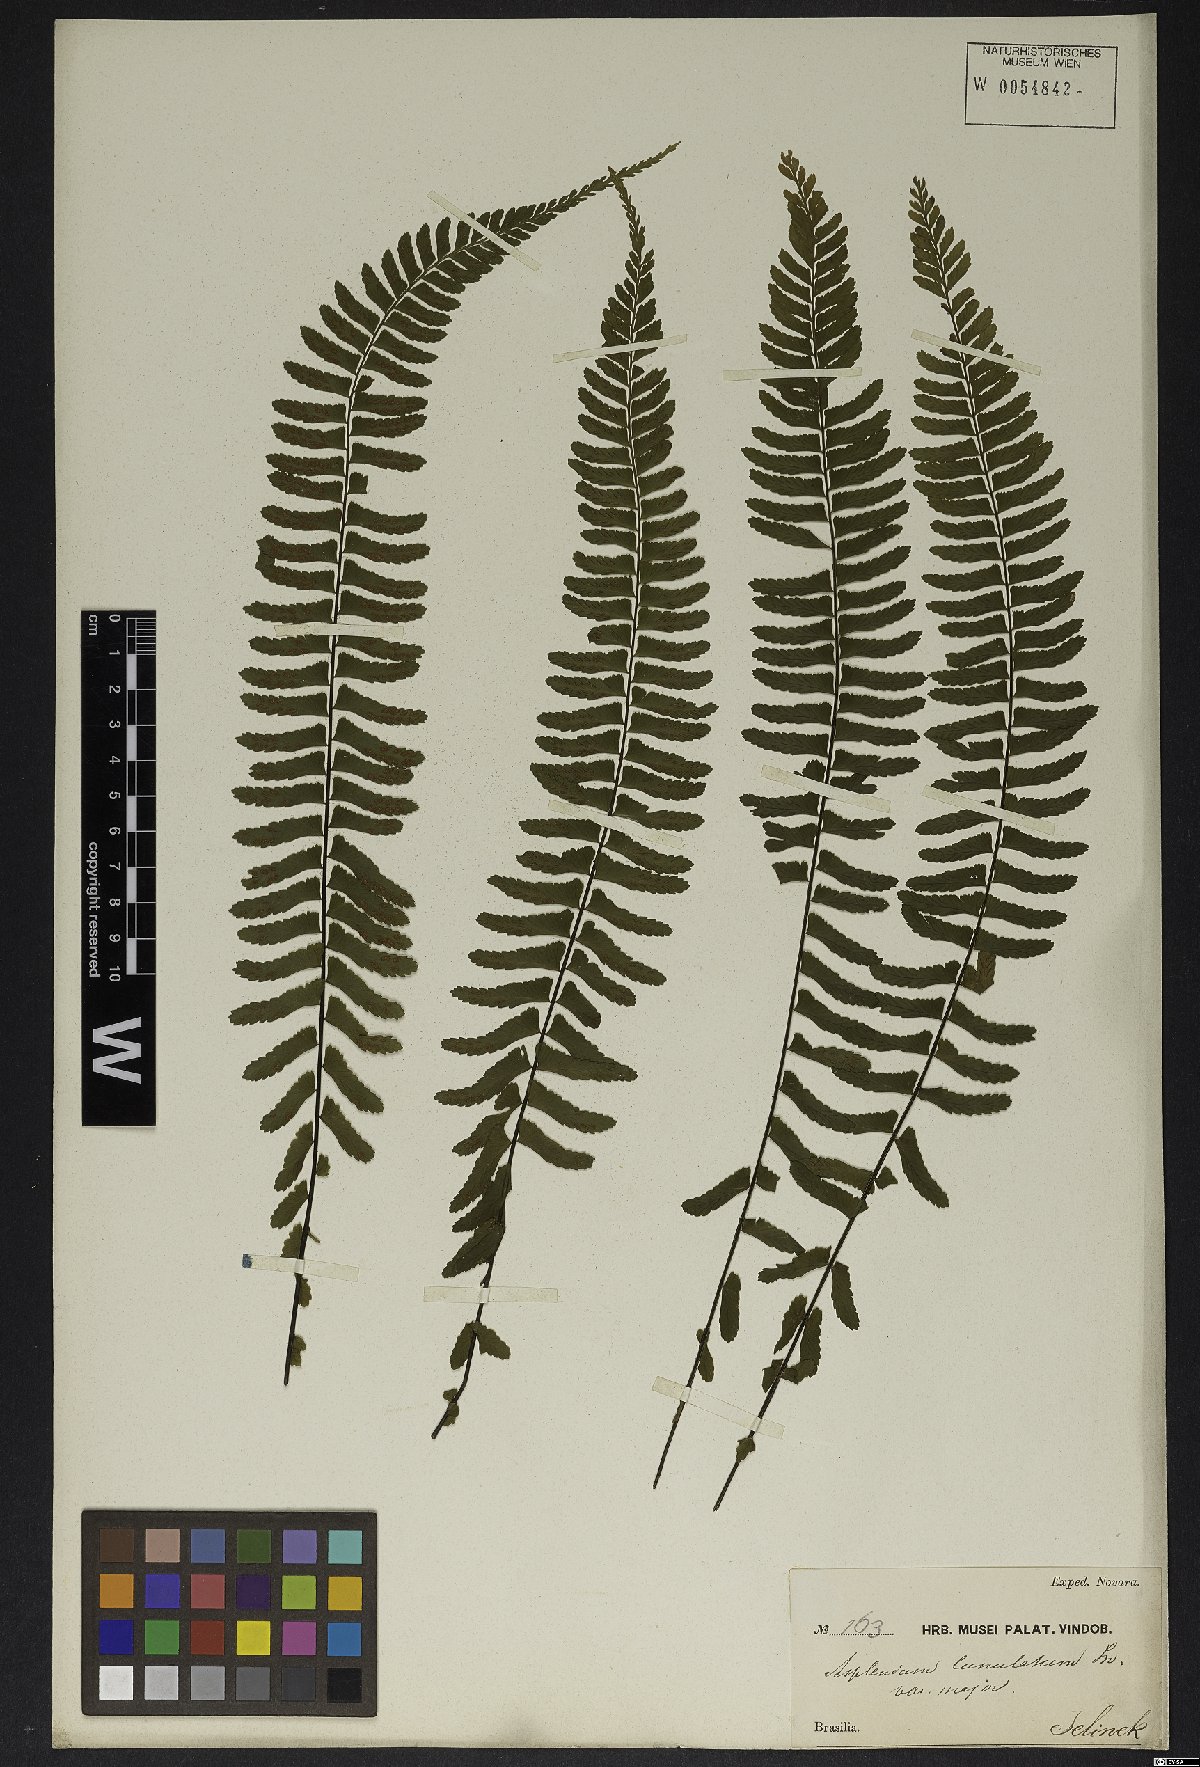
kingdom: Plantae
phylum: Tracheophyta
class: Polypodiopsida
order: Polypodiales
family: Aspleniaceae
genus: Asplenium
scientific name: Asplenium lunulatum
